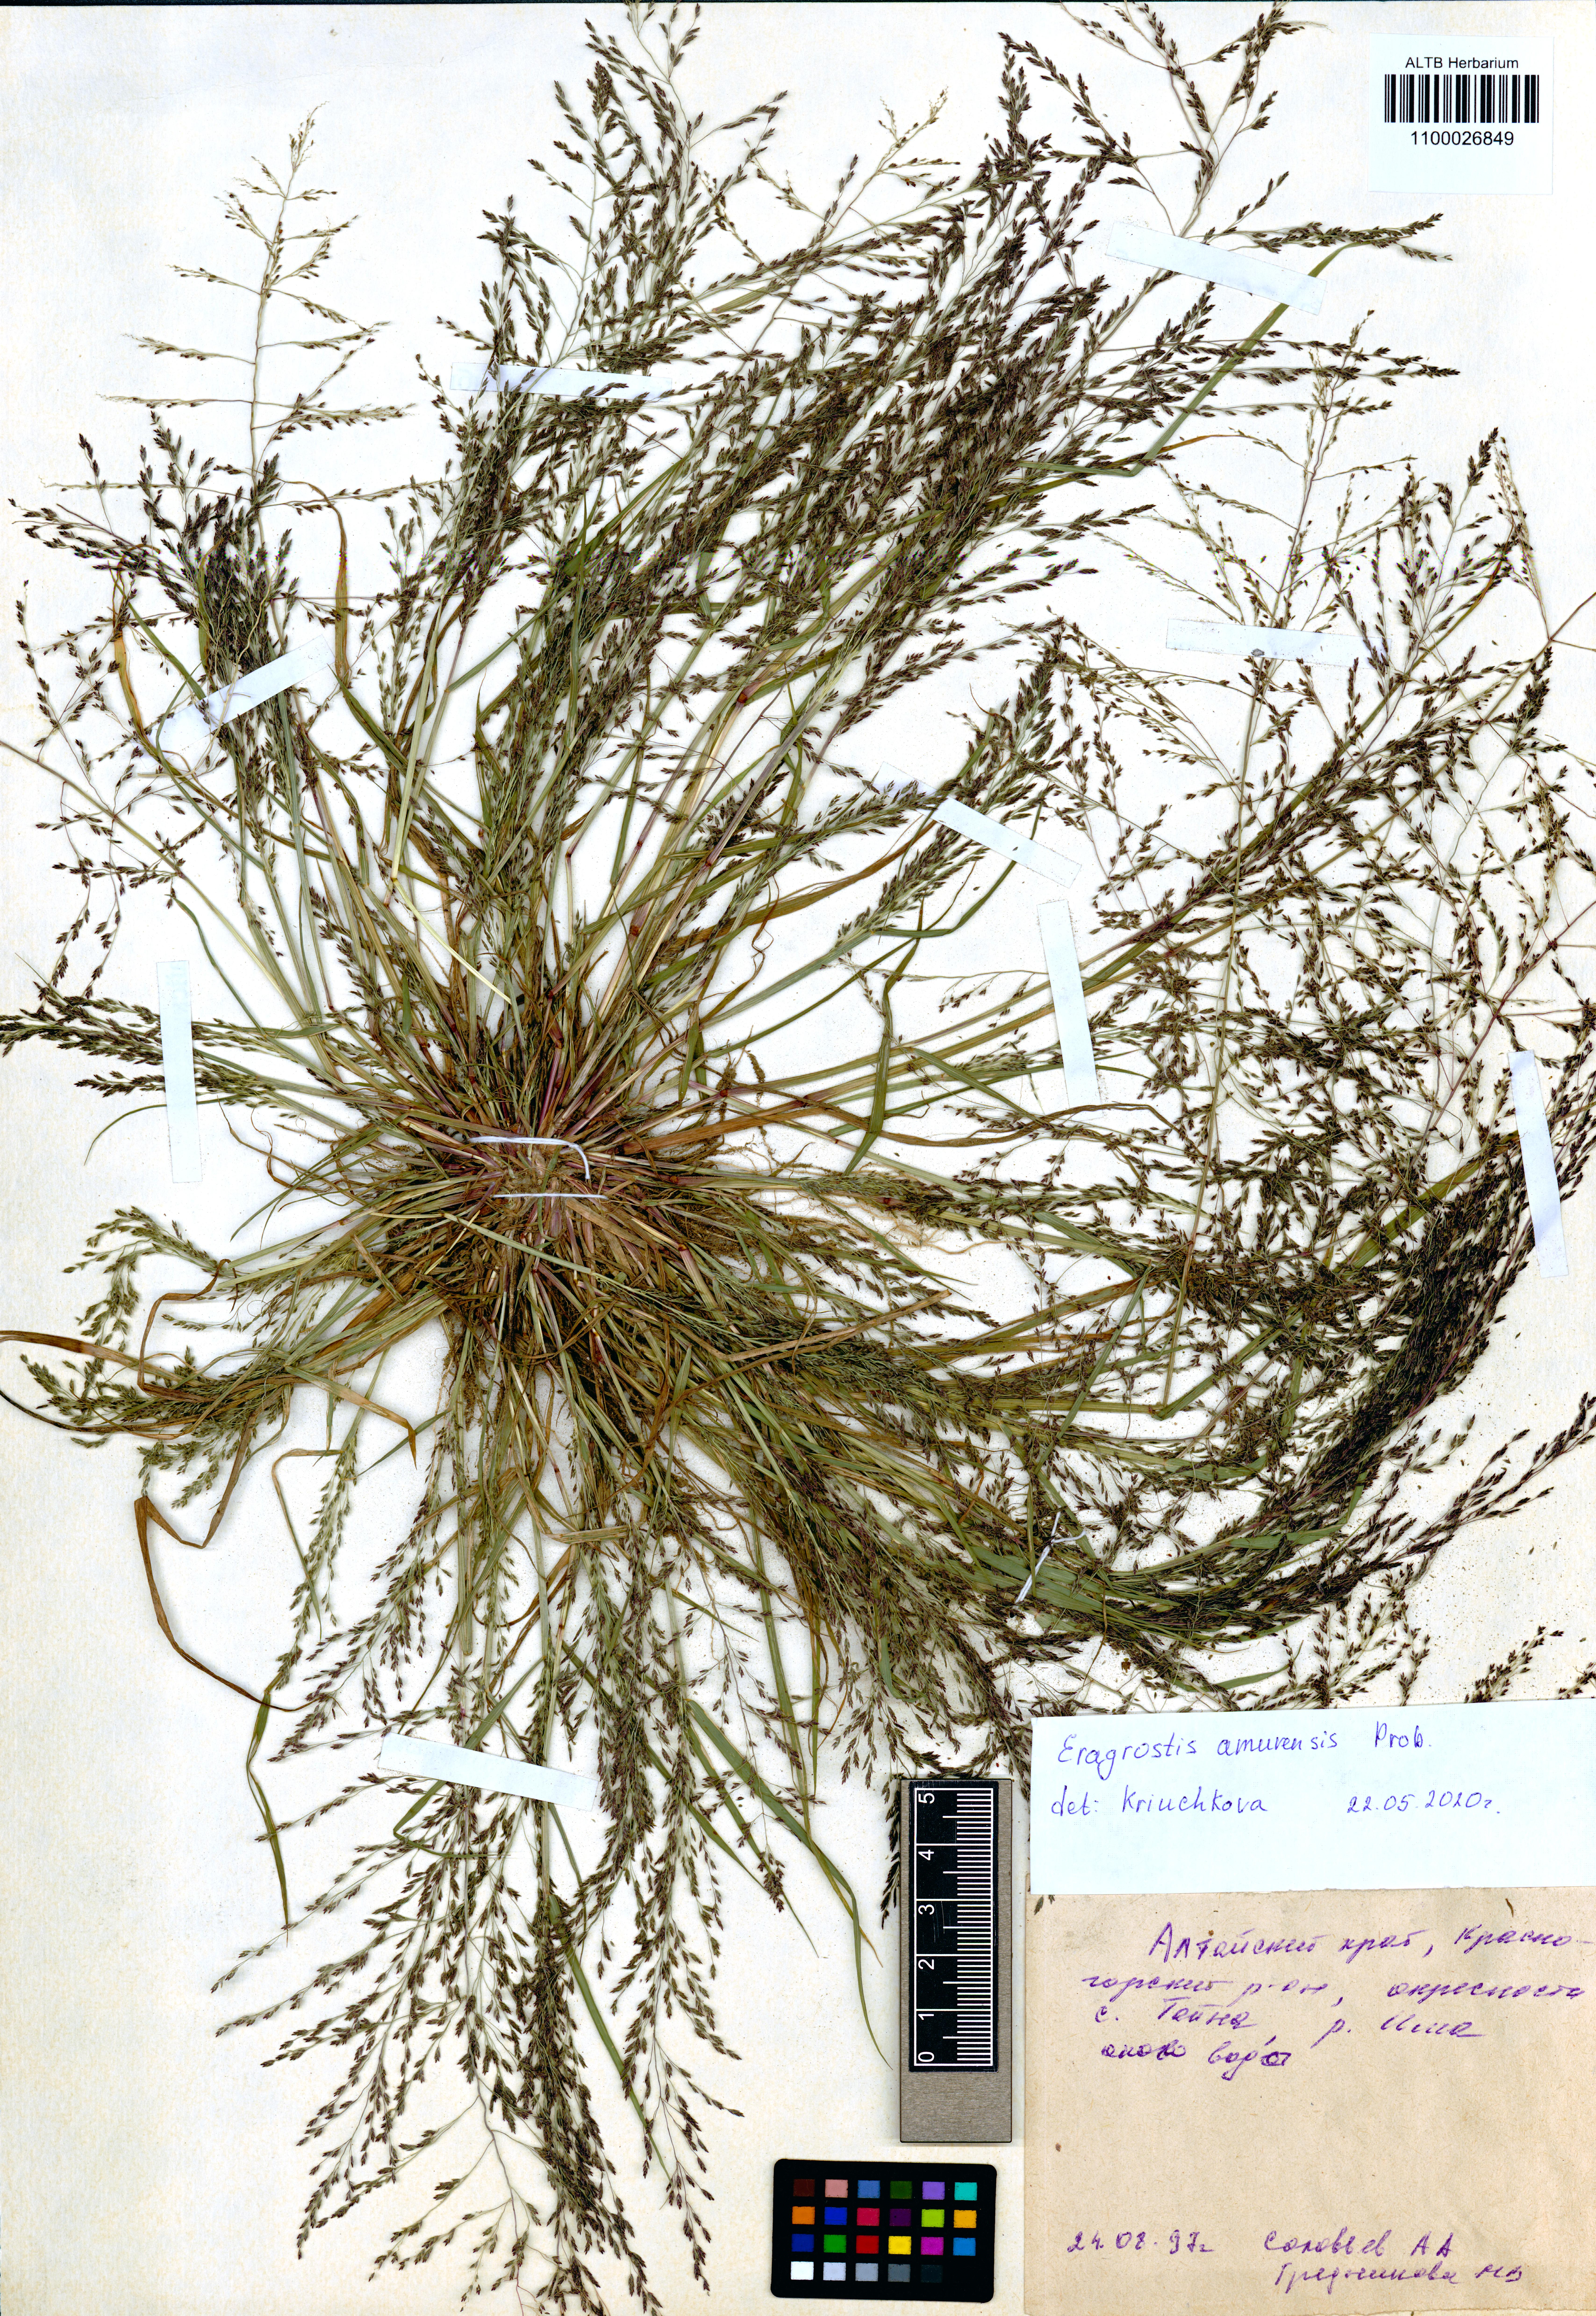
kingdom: Plantae
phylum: Tracheophyta
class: Liliopsida
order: Poales
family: Poaceae
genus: Eragrostis
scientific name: Eragrostis amurensis
